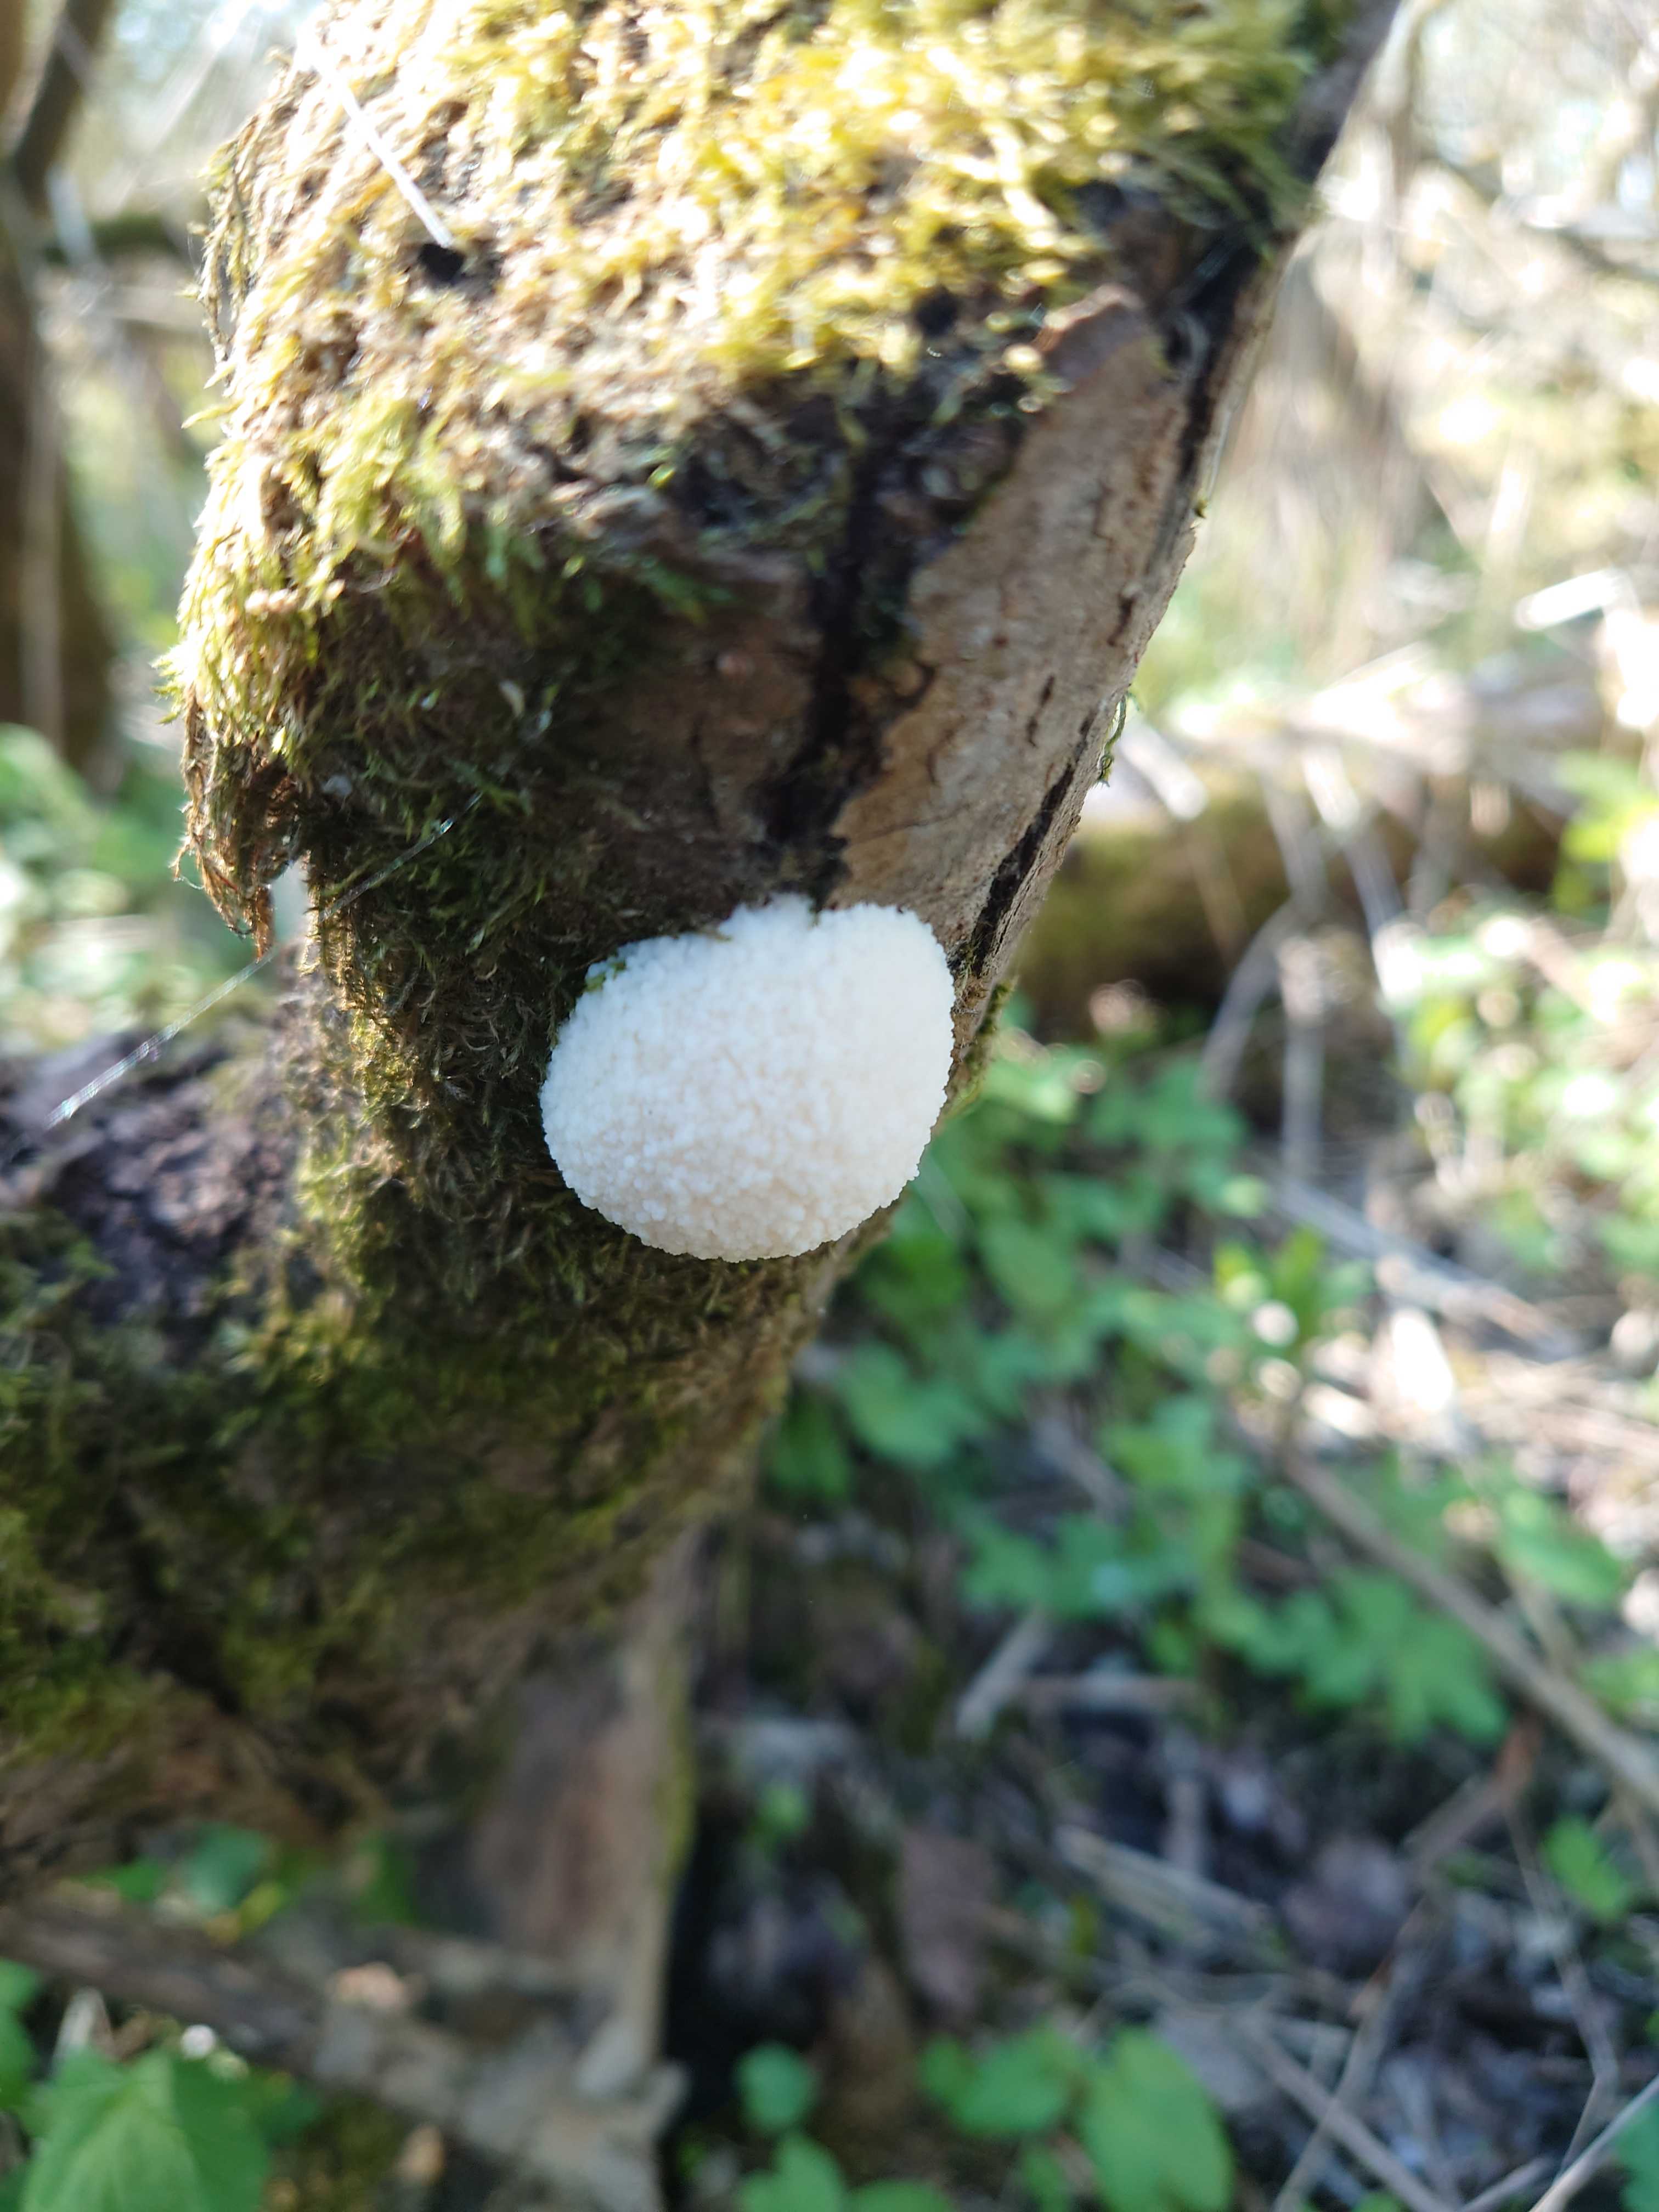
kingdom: Protozoa
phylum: Mycetozoa
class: Myxomycetes
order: Cribrariales
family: Tubiferaceae
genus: Reticularia
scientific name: Reticularia lycoperdon
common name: skinnende støvpude
